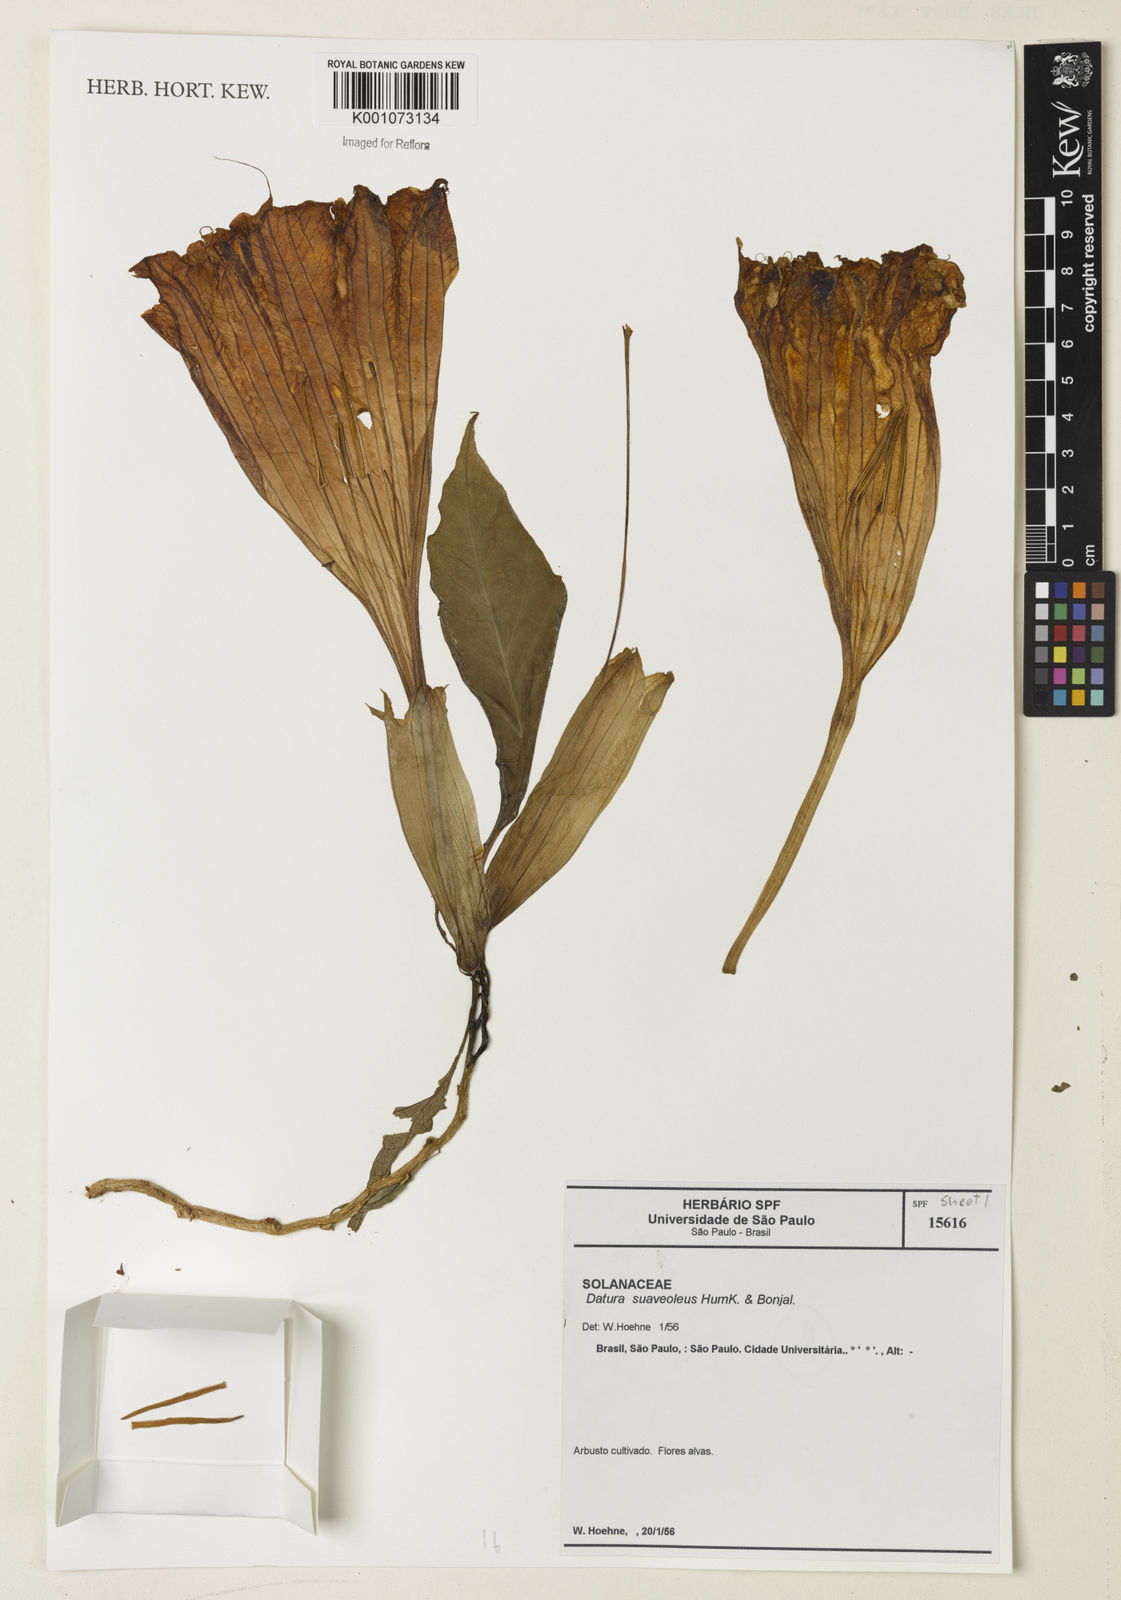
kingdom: Plantae
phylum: Tracheophyta
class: Magnoliopsida
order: Solanales
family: Solanaceae
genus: Brugmansia
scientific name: Brugmansia suaveolens
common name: Angel's tears
